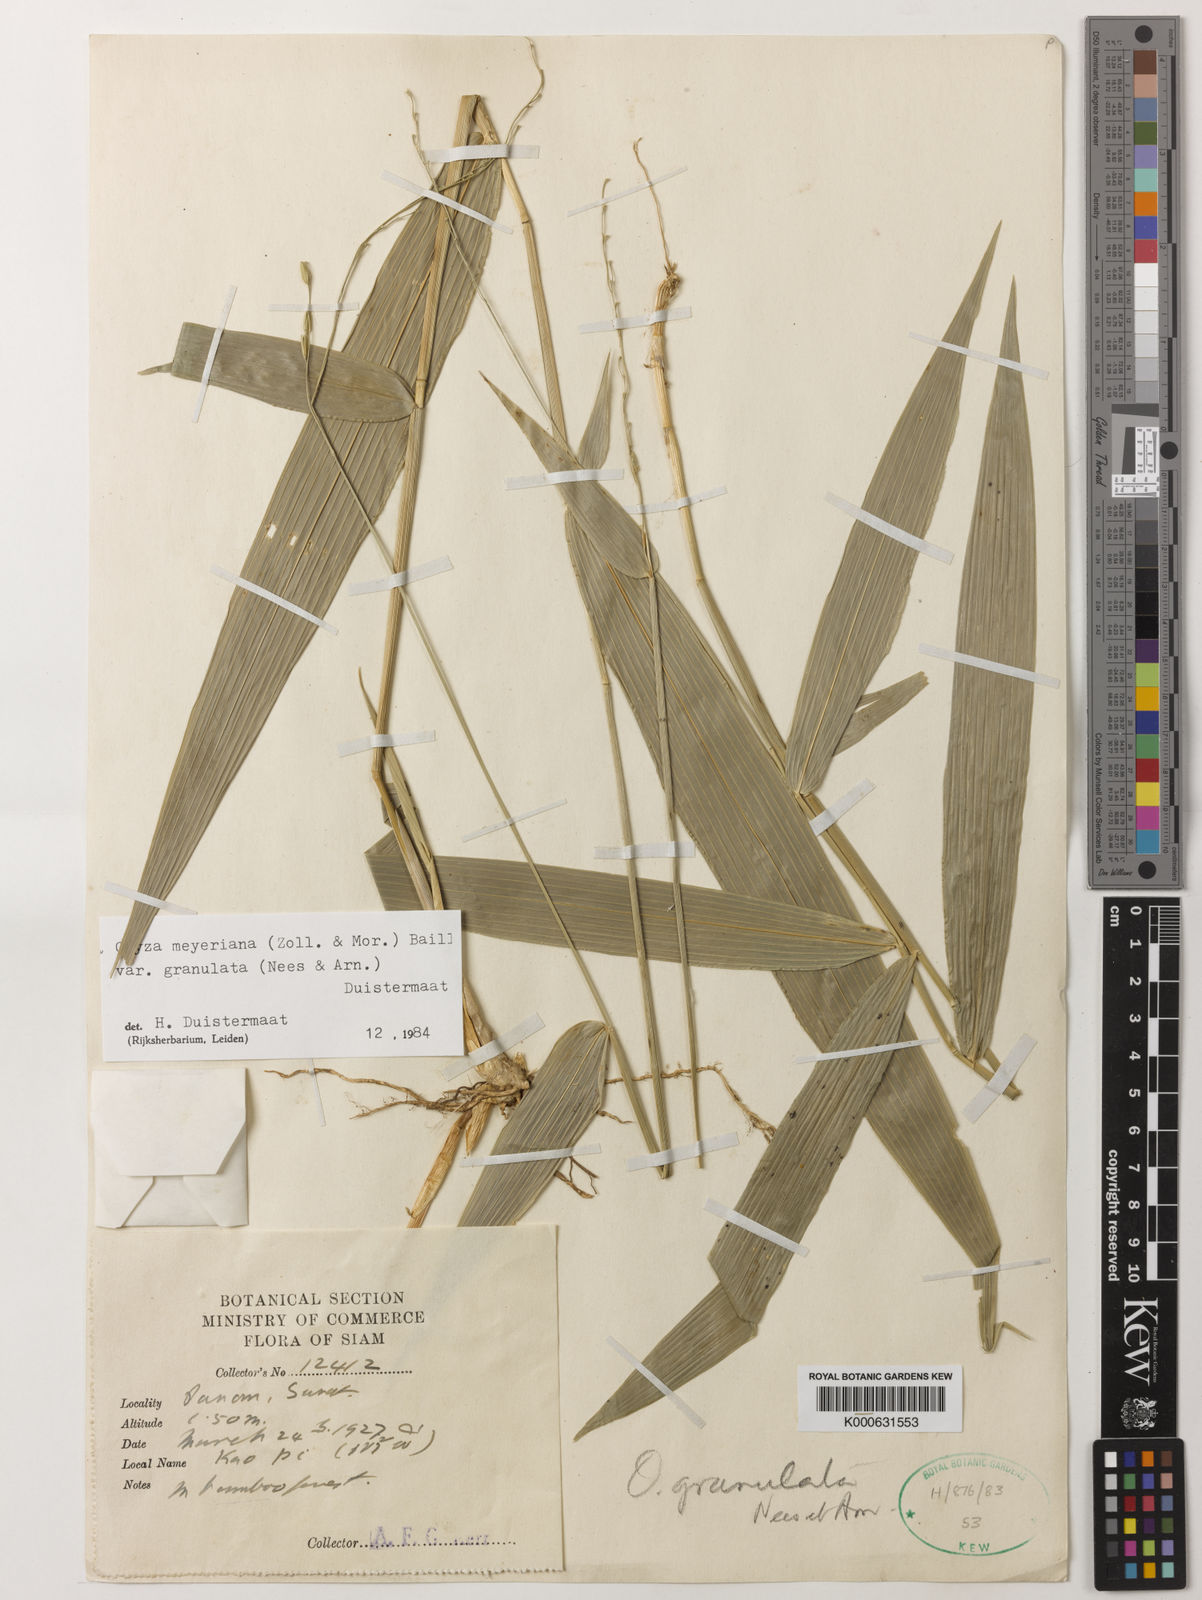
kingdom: Plantae
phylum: Tracheophyta
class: Liliopsida
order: Poales
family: Poaceae
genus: Oryza
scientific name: Oryza meyeriana
